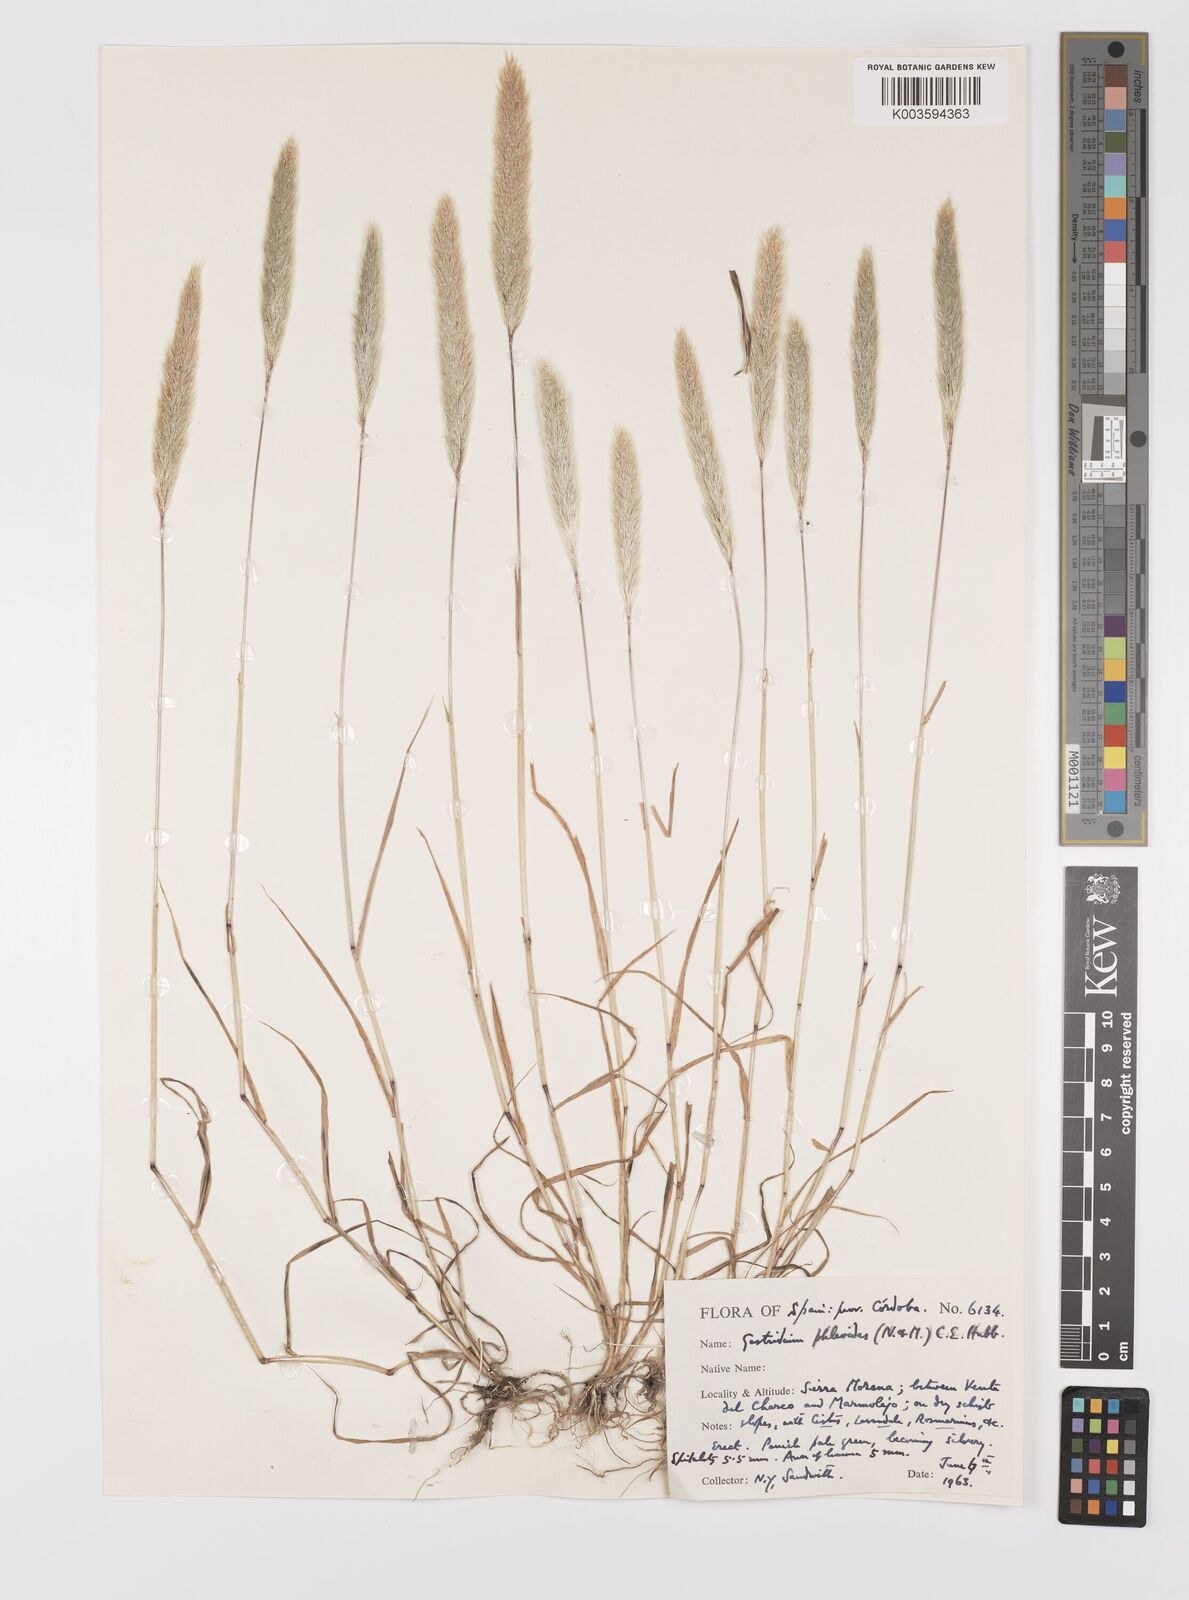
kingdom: Plantae
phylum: Tracheophyta
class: Liliopsida
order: Poales
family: Poaceae
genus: Gastridium
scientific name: Gastridium phleoides
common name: Nit grass
